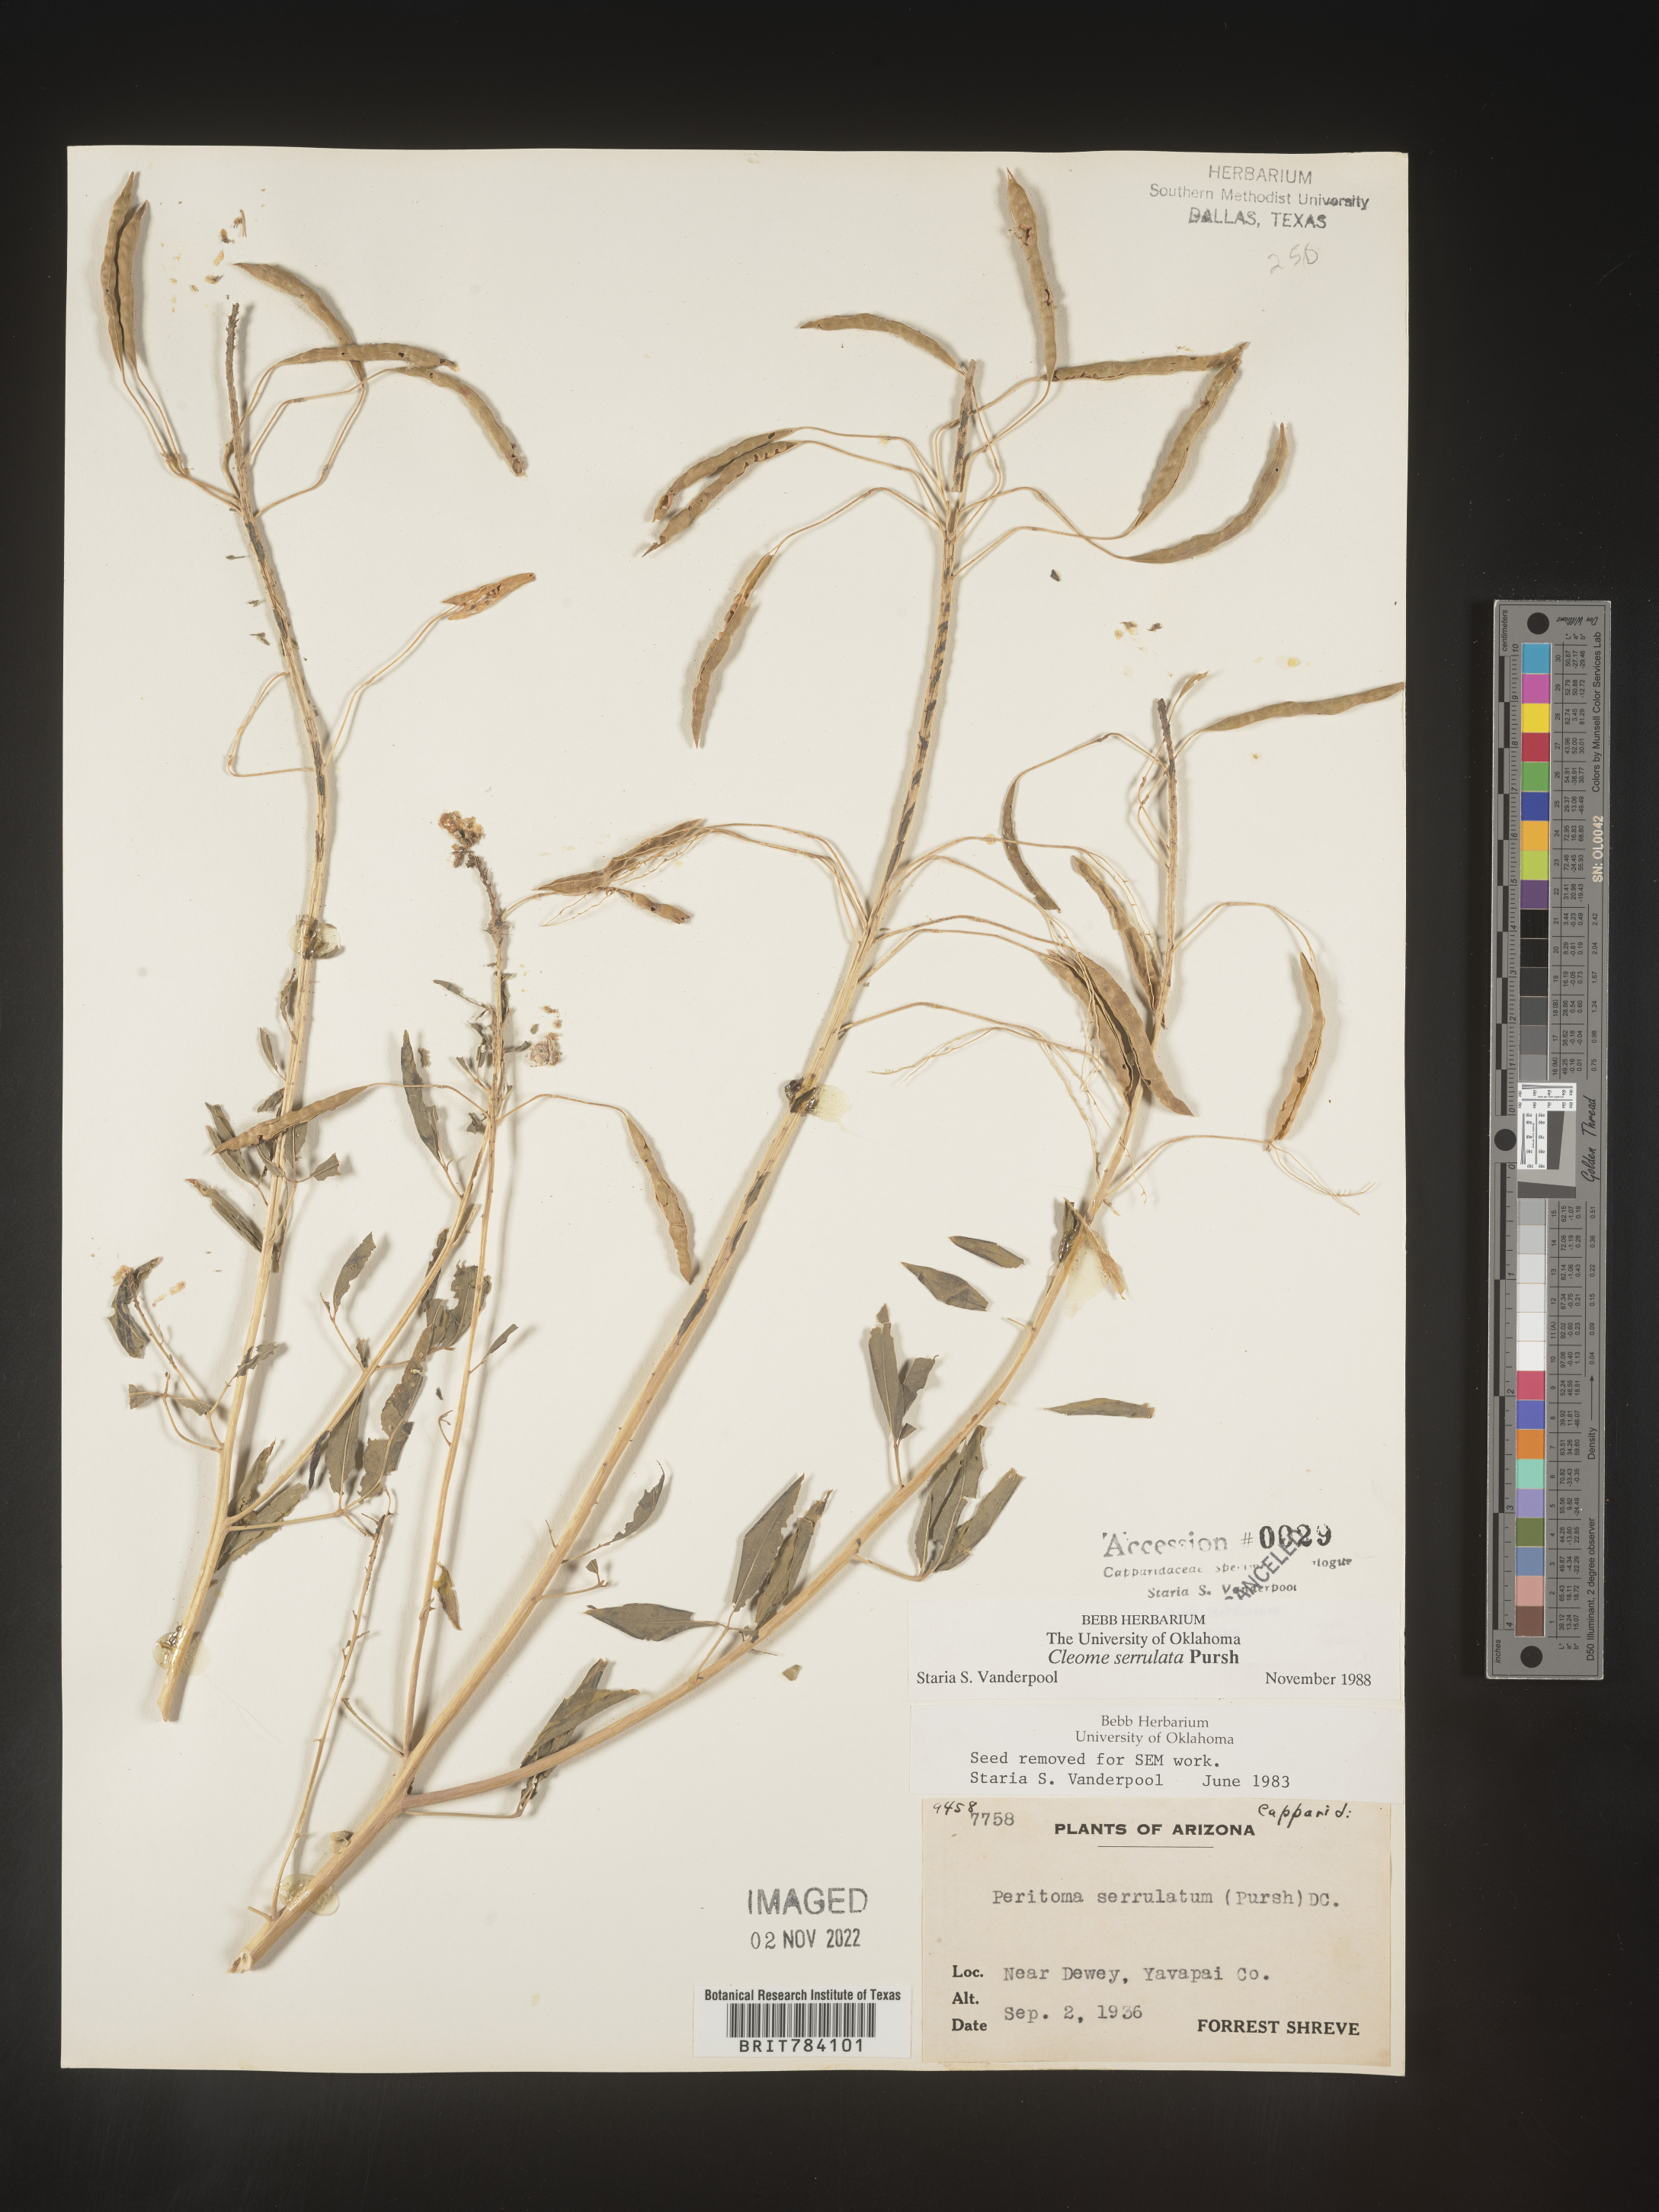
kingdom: Plantae
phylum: Tracheophyta
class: Magnoliopsida
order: Brassicales
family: Cleomaceae
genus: Cleomella
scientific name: Cleomella serrulata
